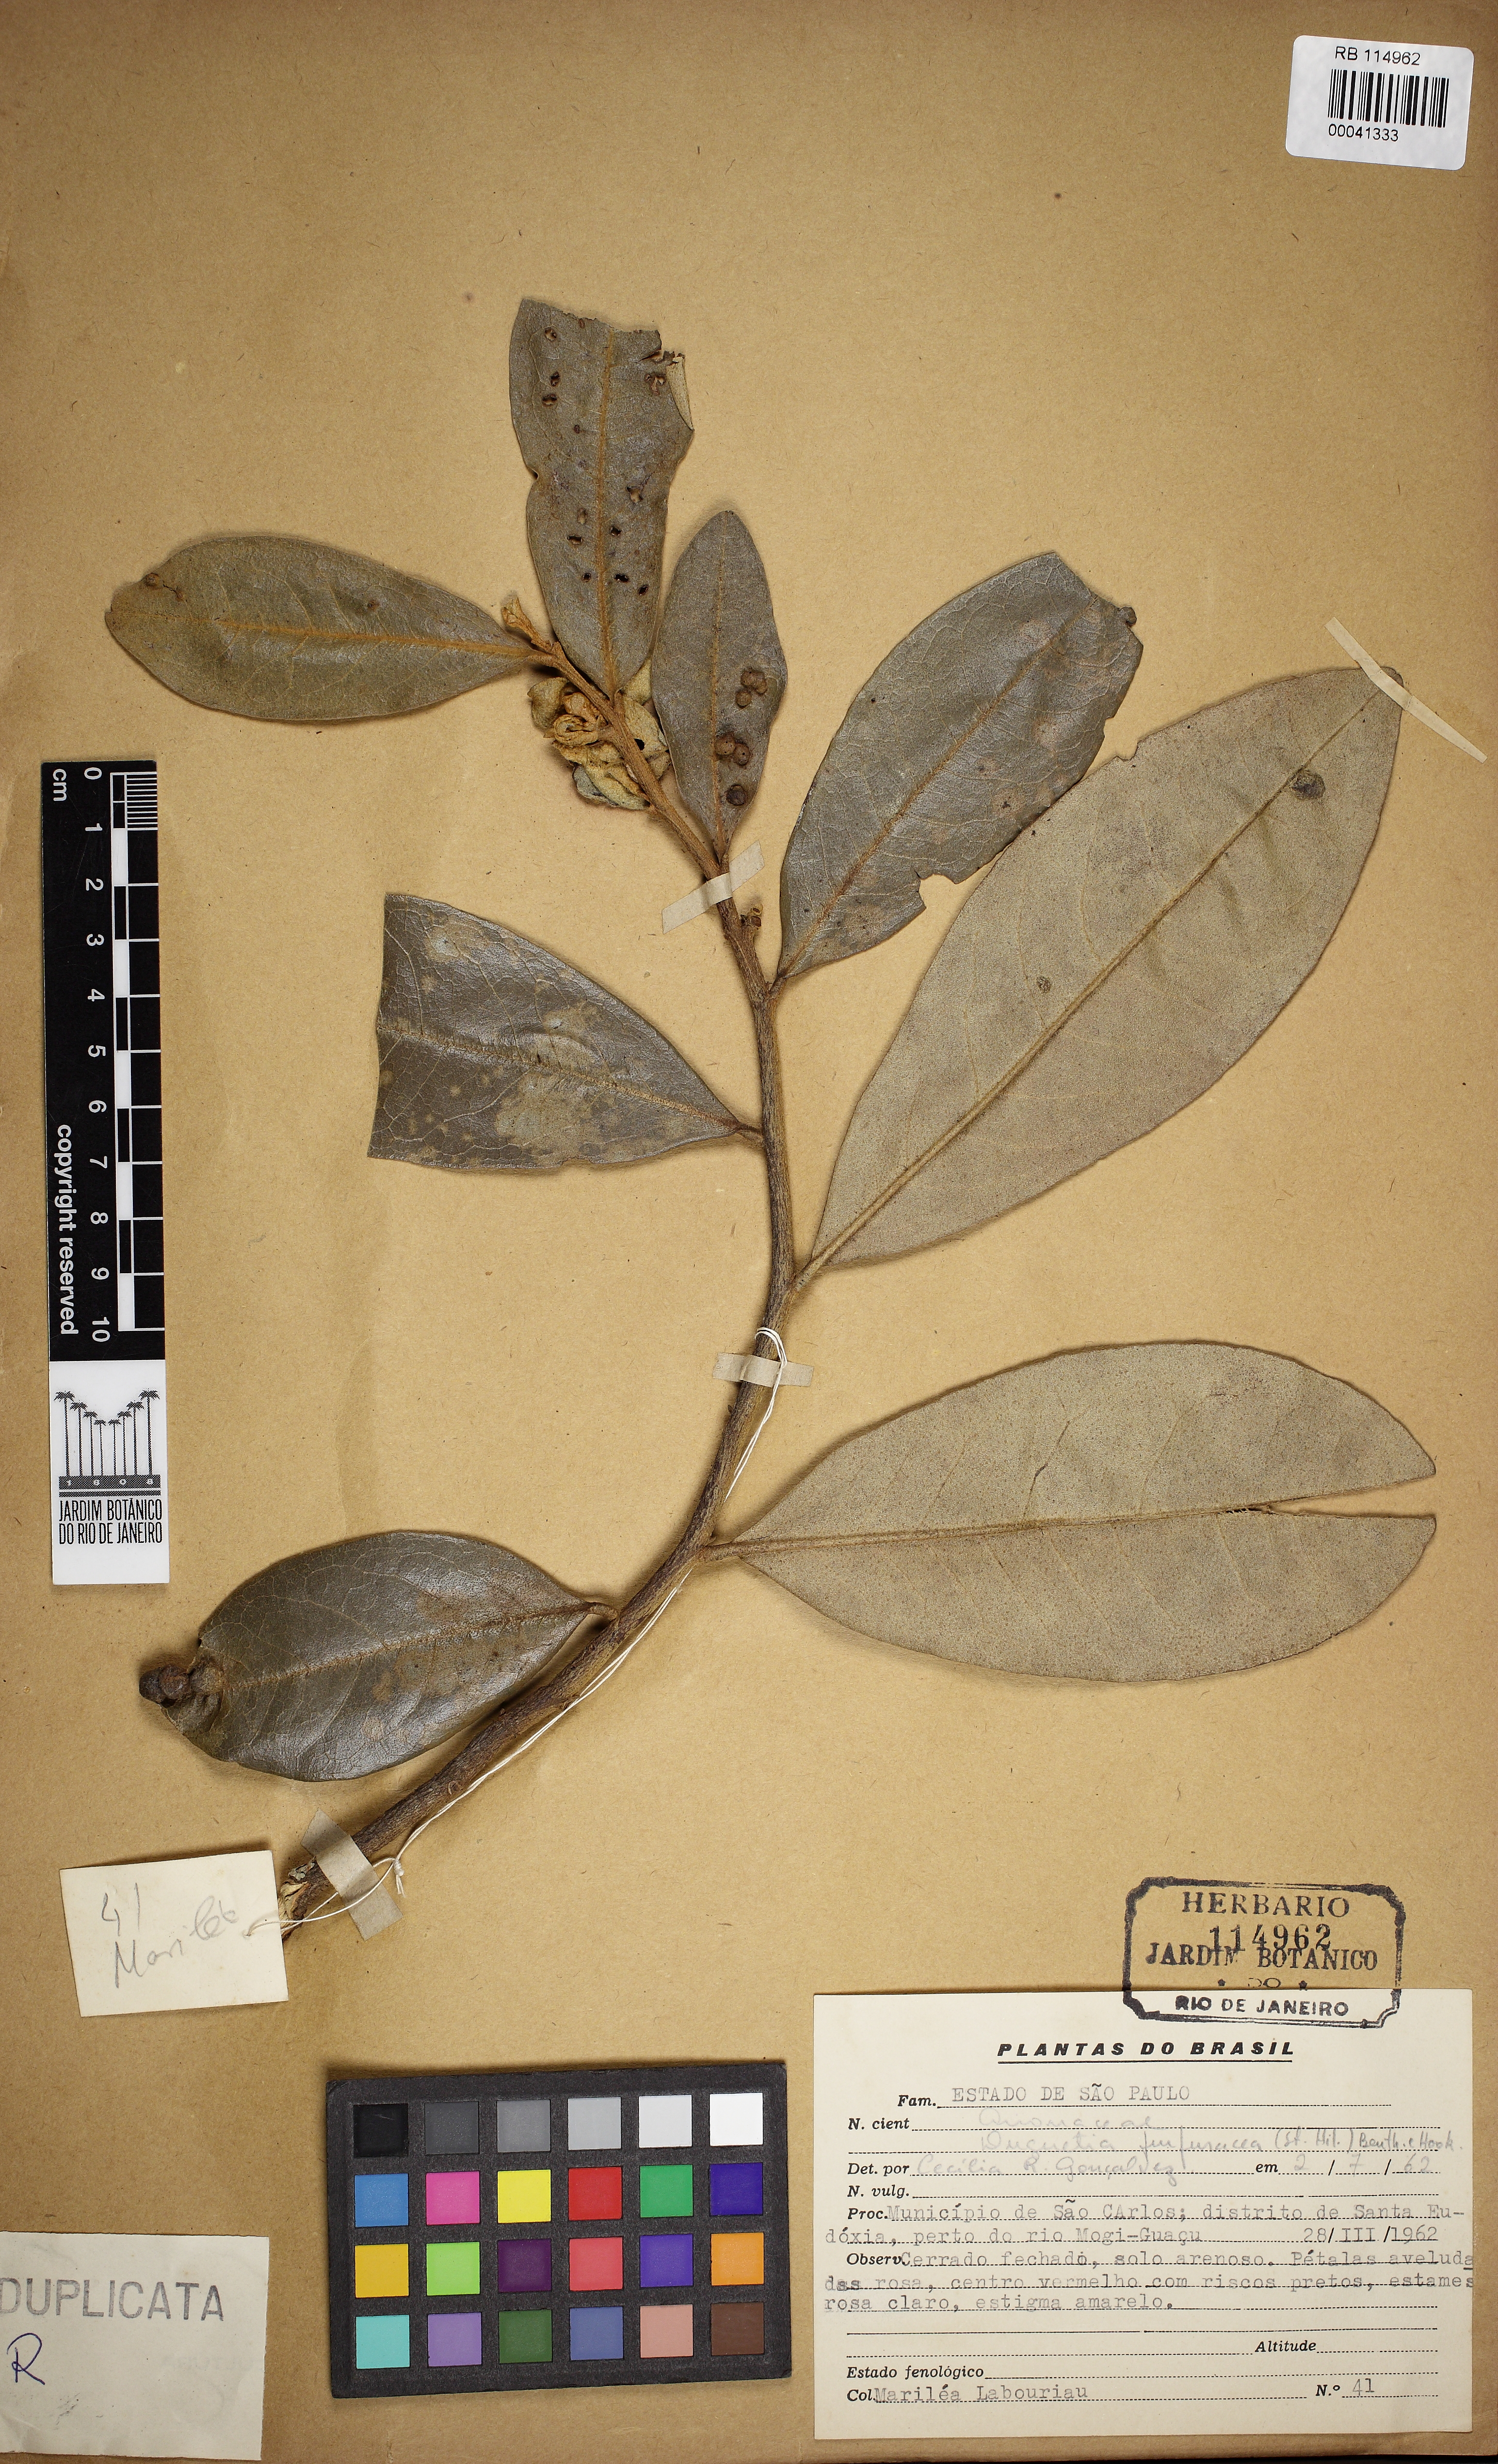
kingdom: Plantae
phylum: Tracheophyta
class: Magnoliopsida
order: Magnoliales
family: Annonaceae
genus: Duguetia
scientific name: Duguetia furfuracea
